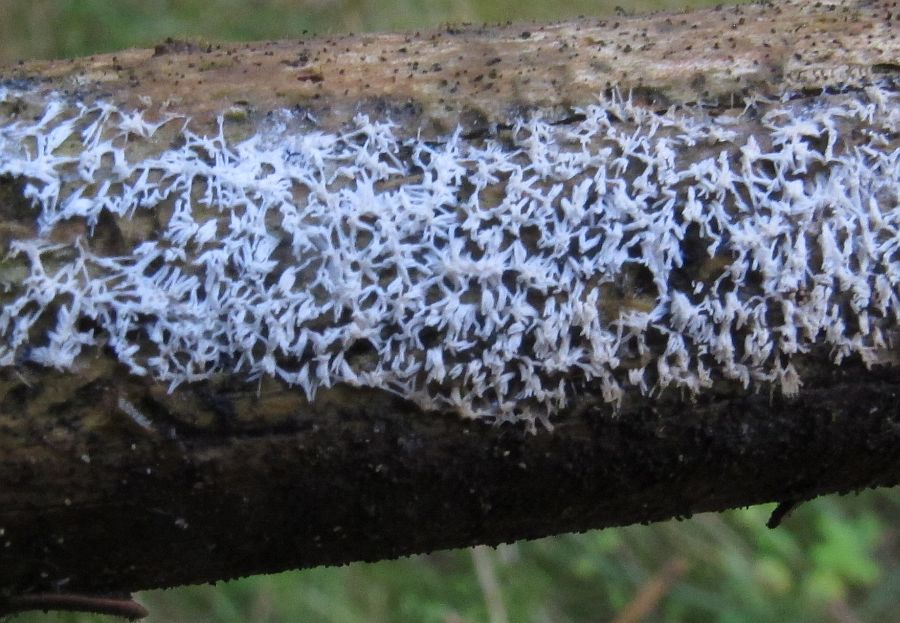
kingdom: Protozoa
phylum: Mycetozoa
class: Protosteliomycetes
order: Ceratiomyxales
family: Ceratiomyxaceae
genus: Ceratiomyxa
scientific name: Ceratiomyxa fruticulosa
